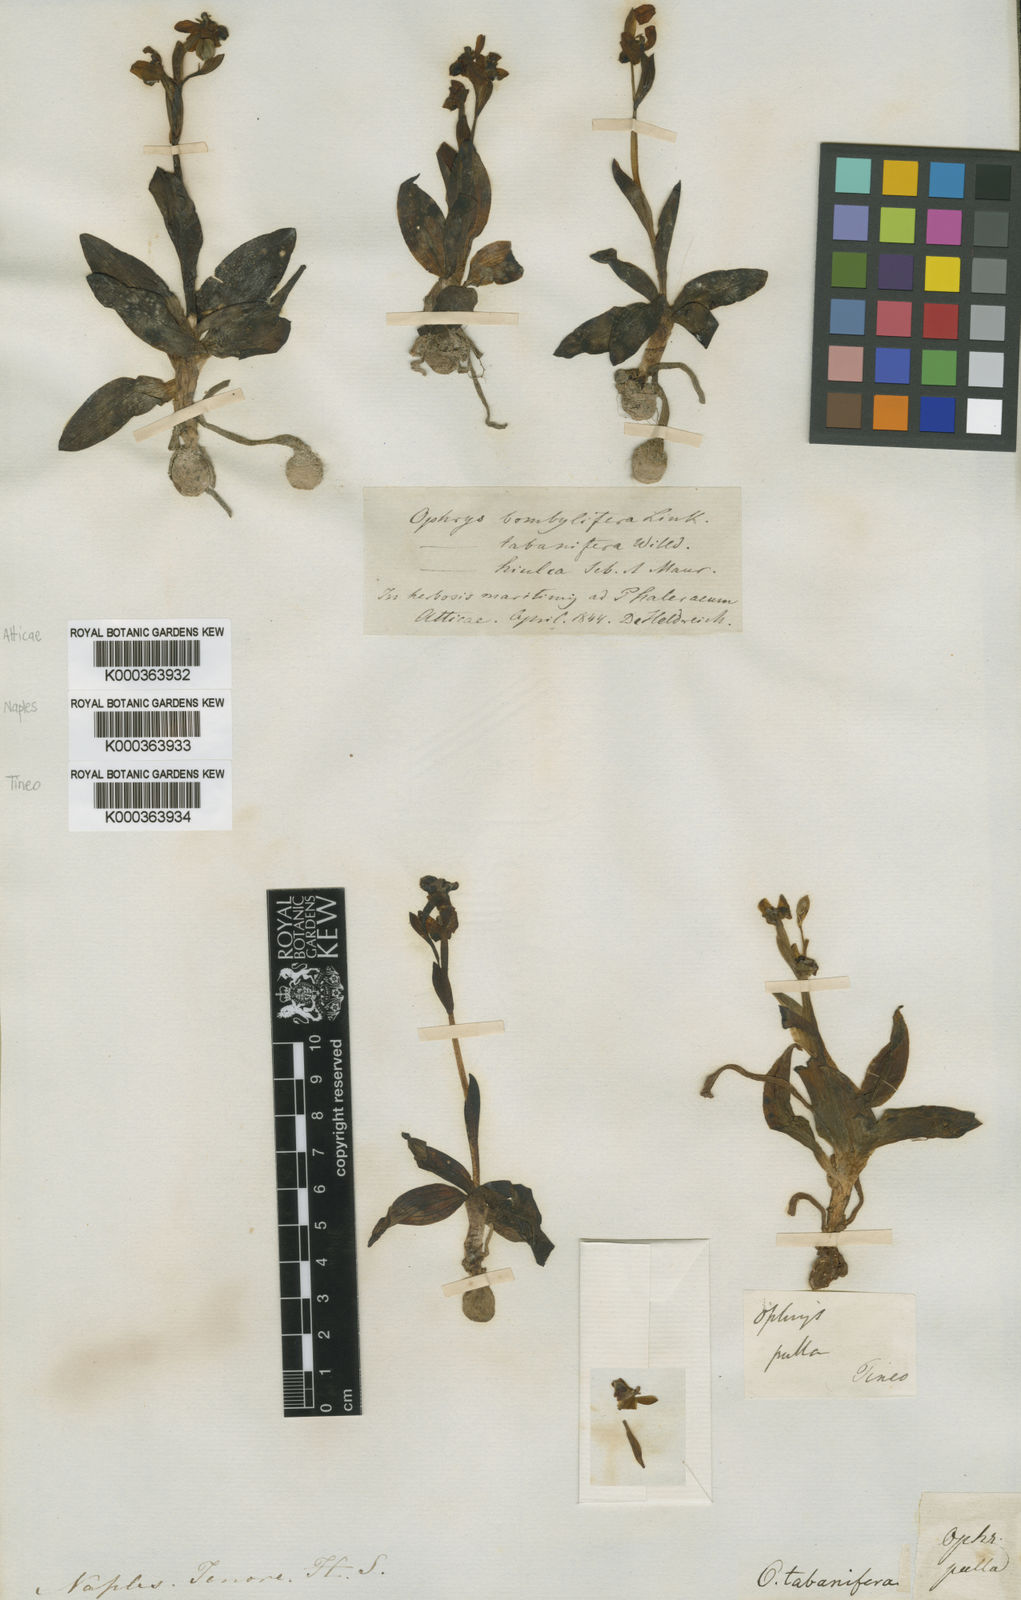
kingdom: Plantae
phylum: Tracheophyta
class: Liliopsida
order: Asparagales
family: Orchidaceae
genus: Ophrys
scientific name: Ophrys bombyliflora
